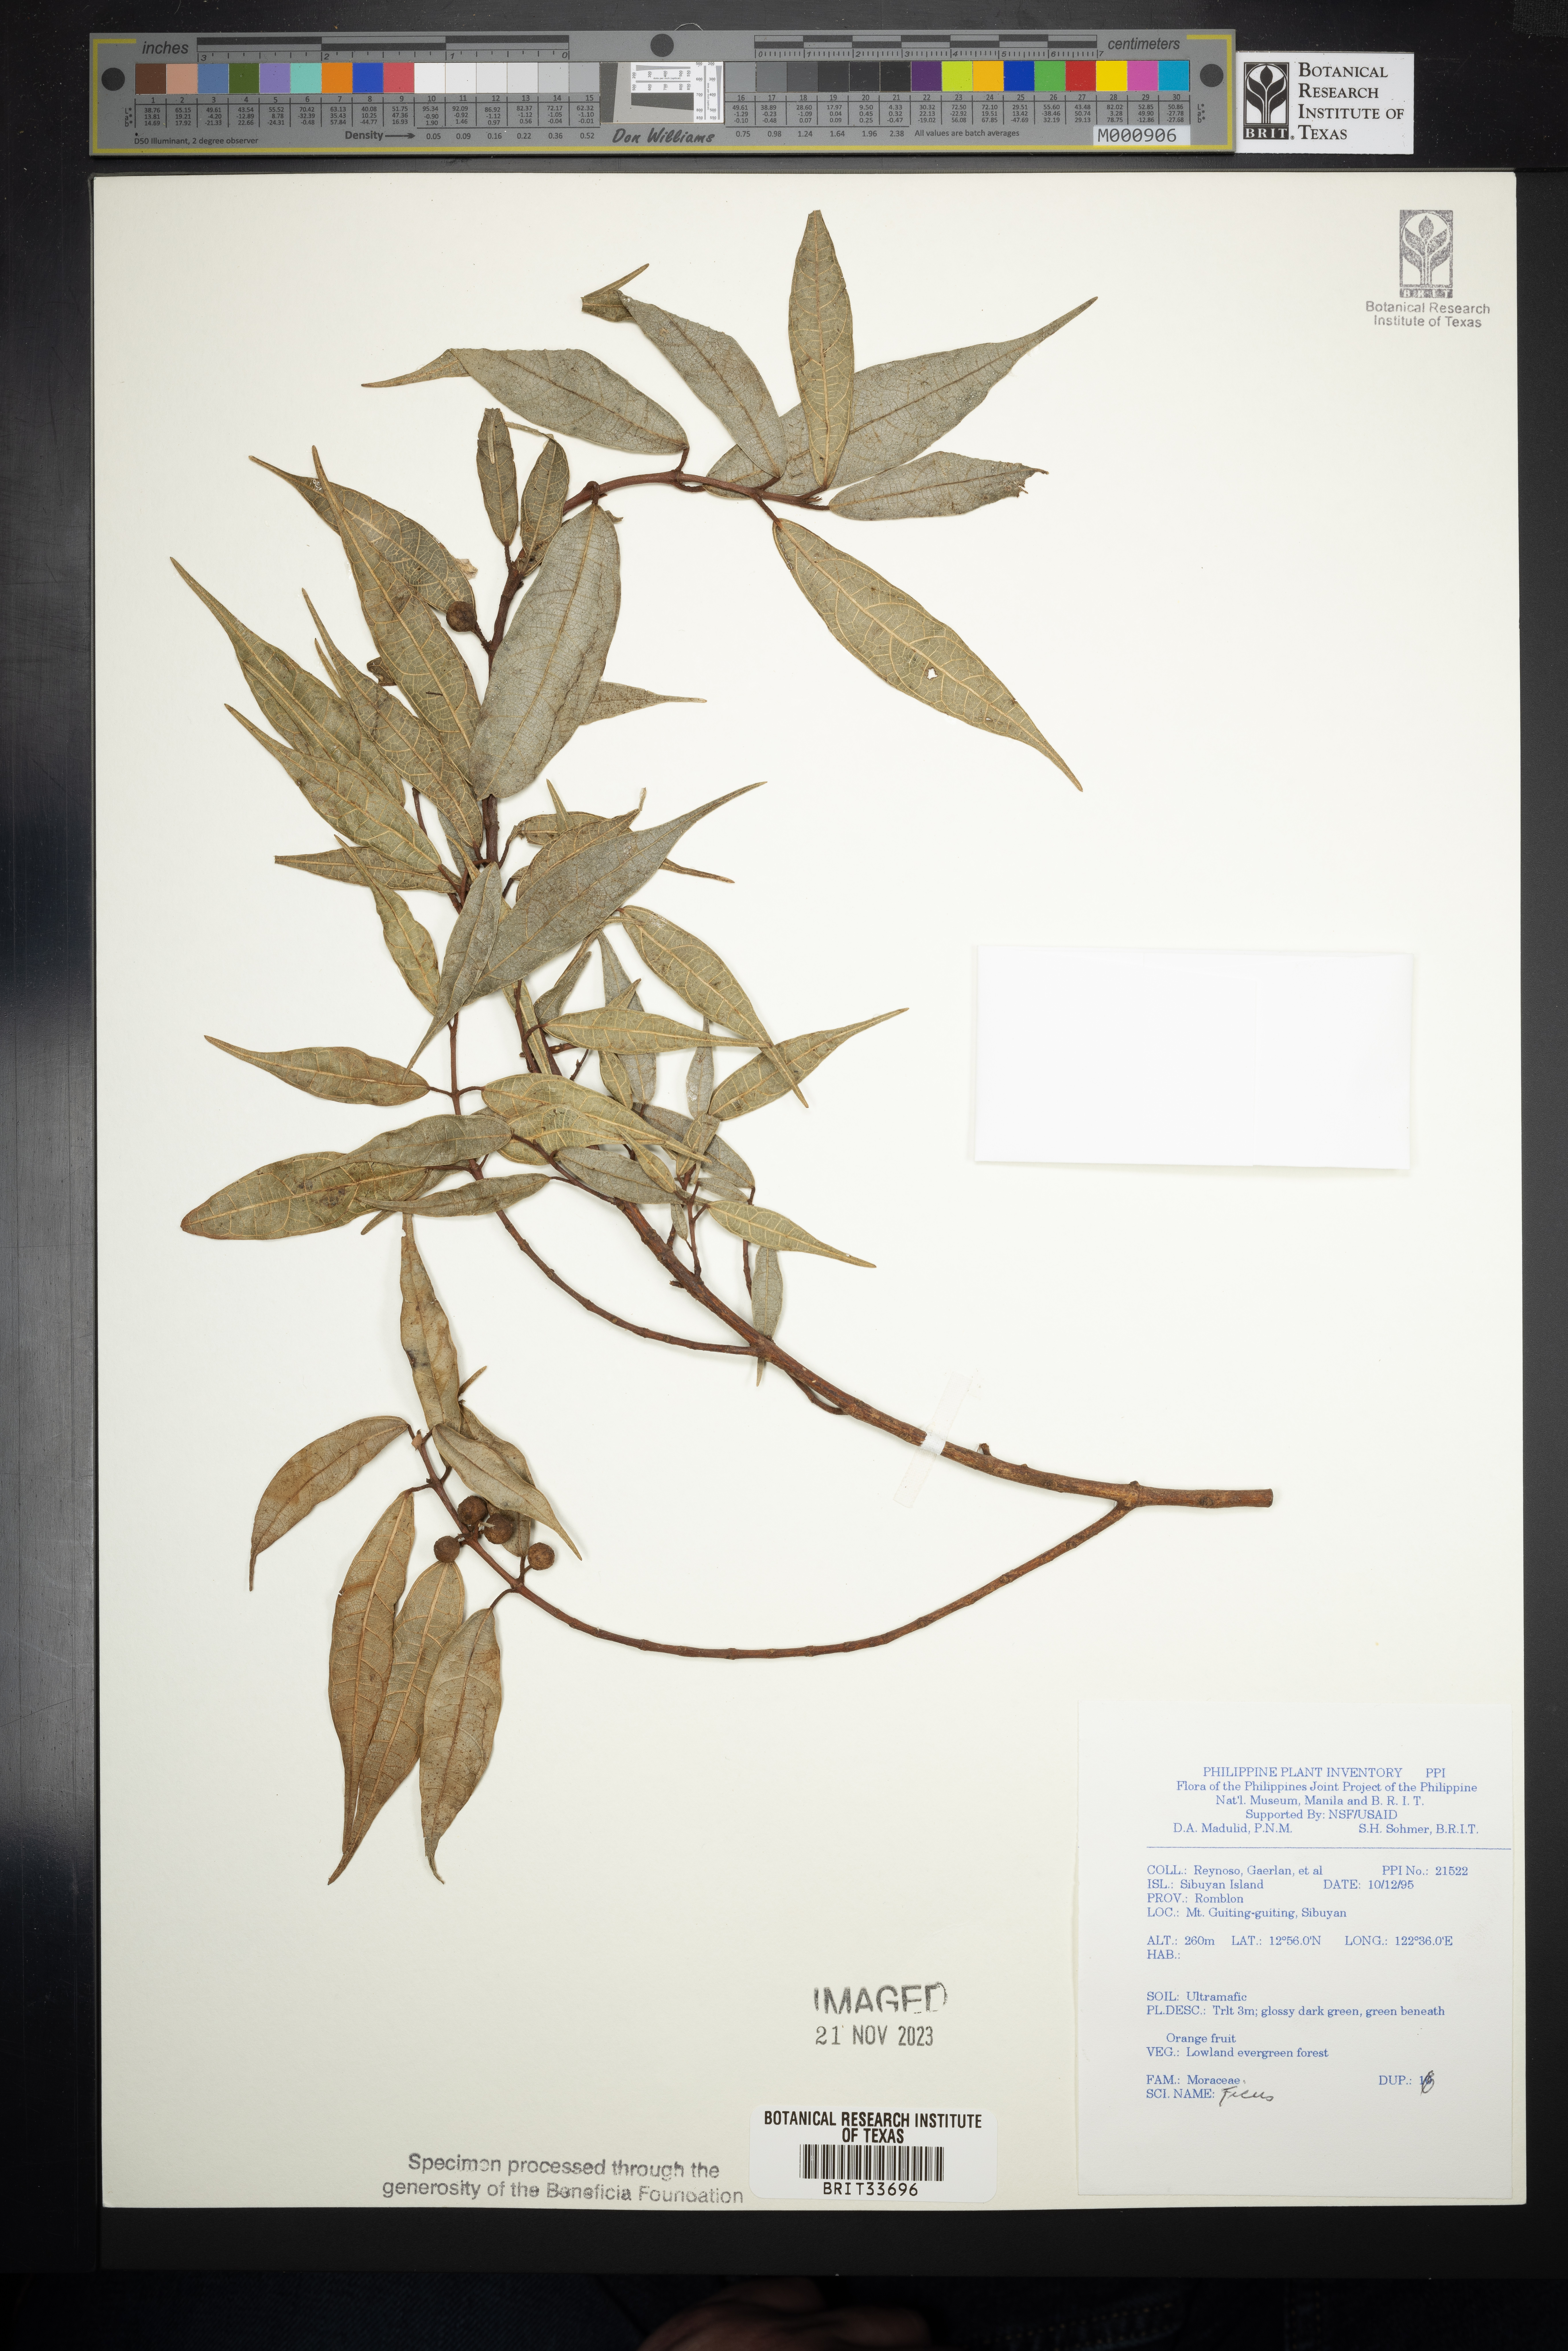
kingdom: Plantae
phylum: Tracheophyta
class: Magnoliopsida
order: Rosales
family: Moraceae
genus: Ficus
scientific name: Ficus
